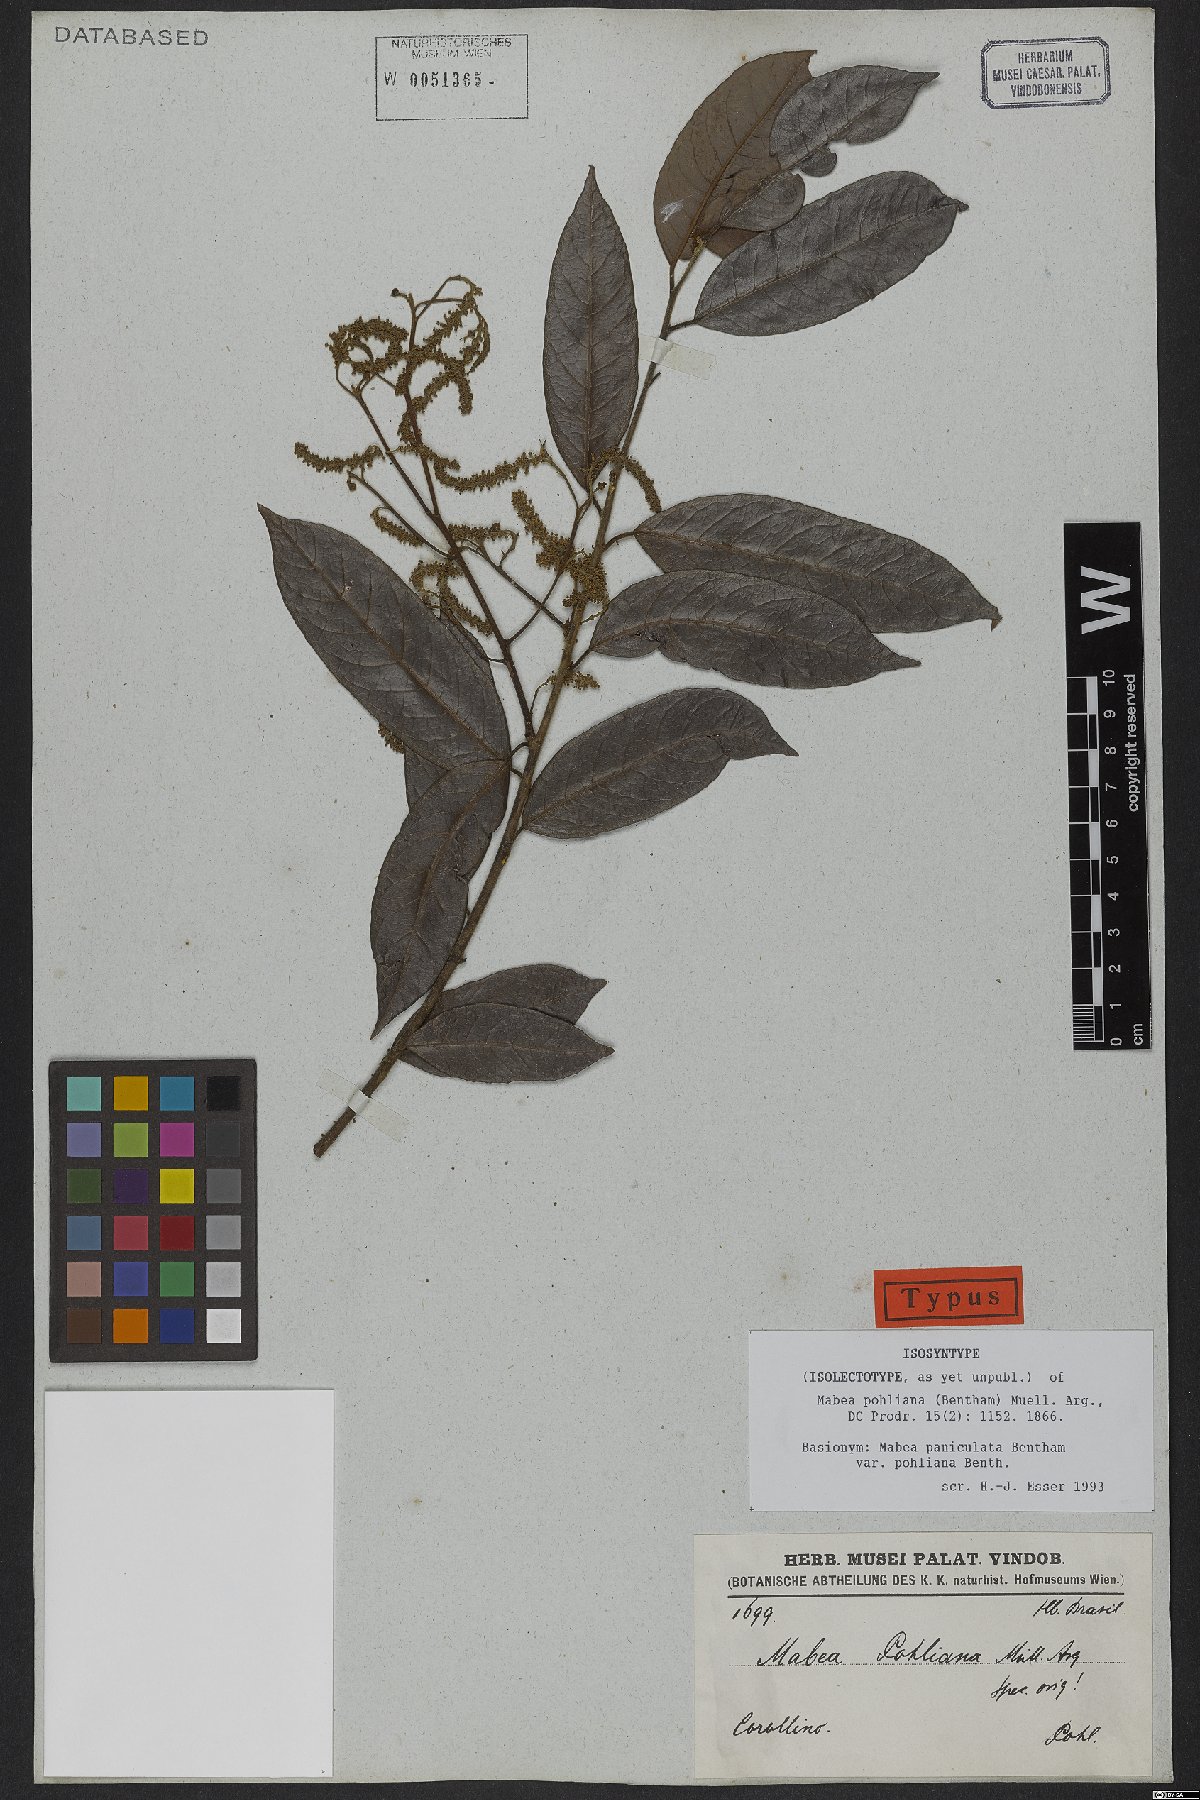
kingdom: Plantae
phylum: Tracheophyta
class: Magnoliopsida
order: Malpighiales
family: Euphorbiaceae
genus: Mabea
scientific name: Mabea pohliana
